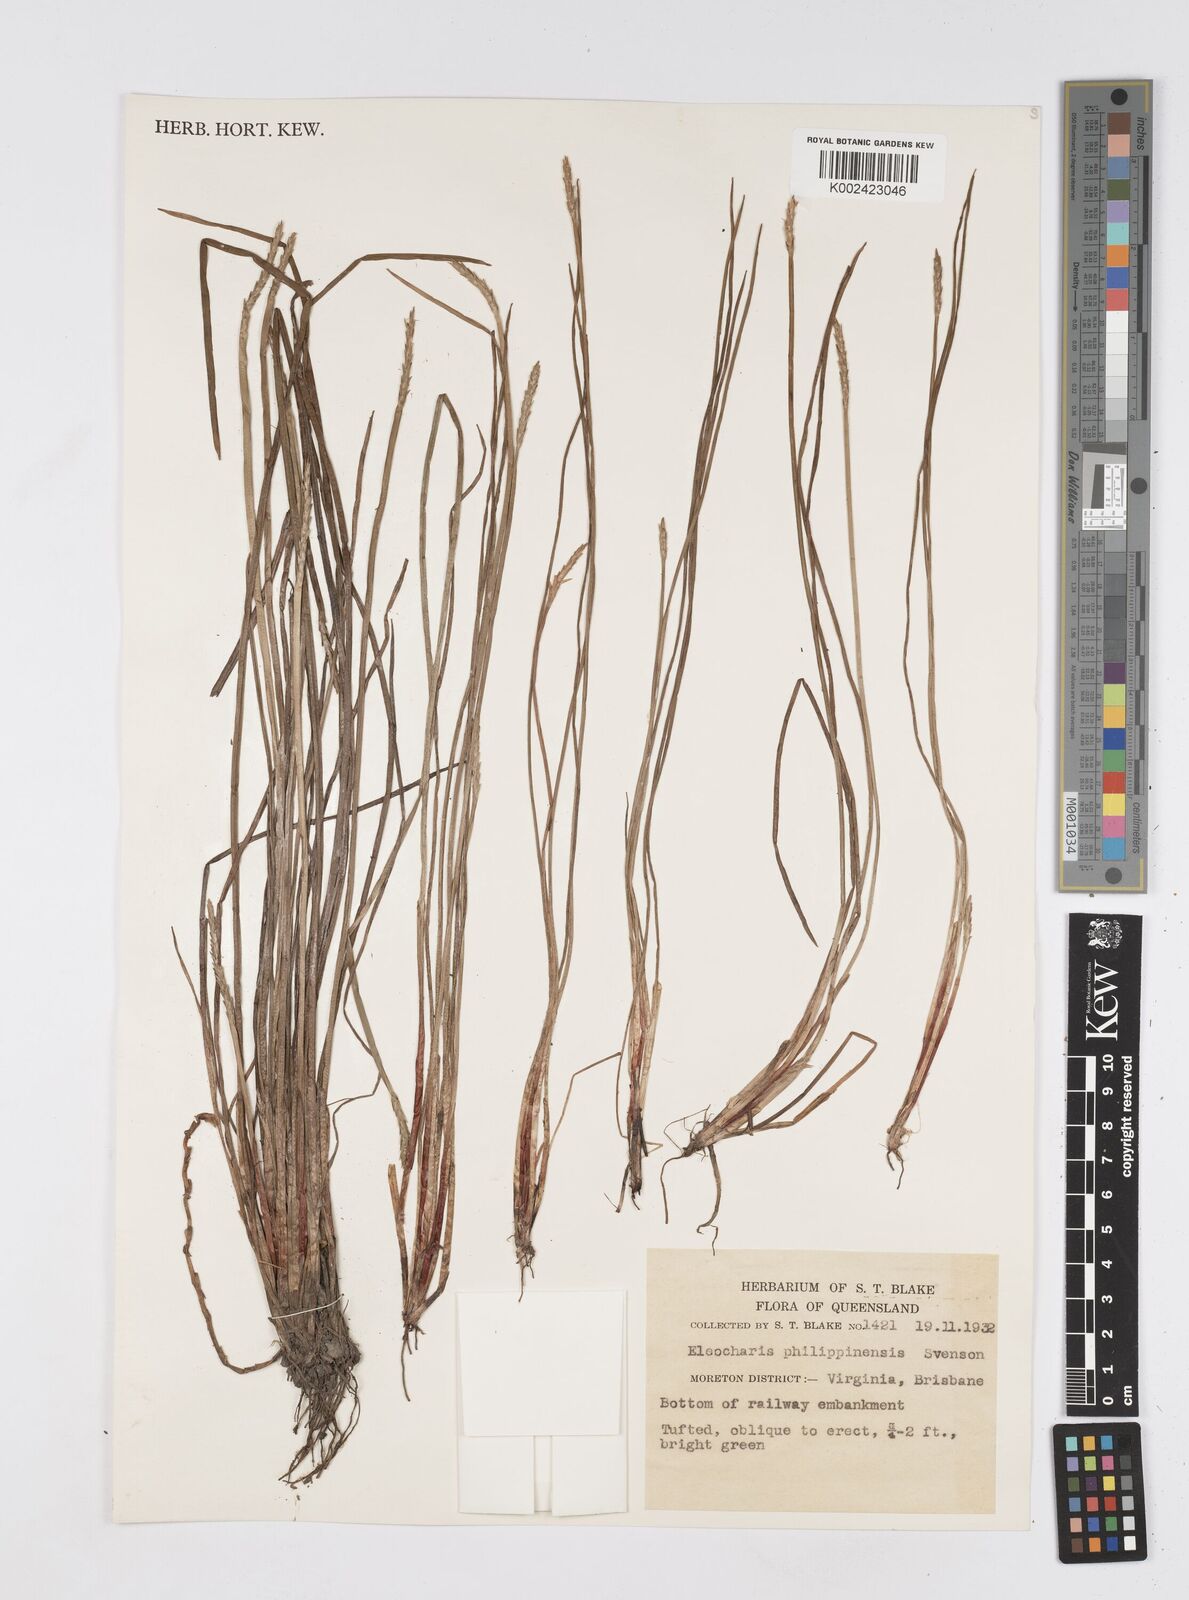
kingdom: Plantae
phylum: Tracheophyta
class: Liliopsida
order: Poales
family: Cyperaceae
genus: Eleocharis
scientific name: Eleocharis nuda
